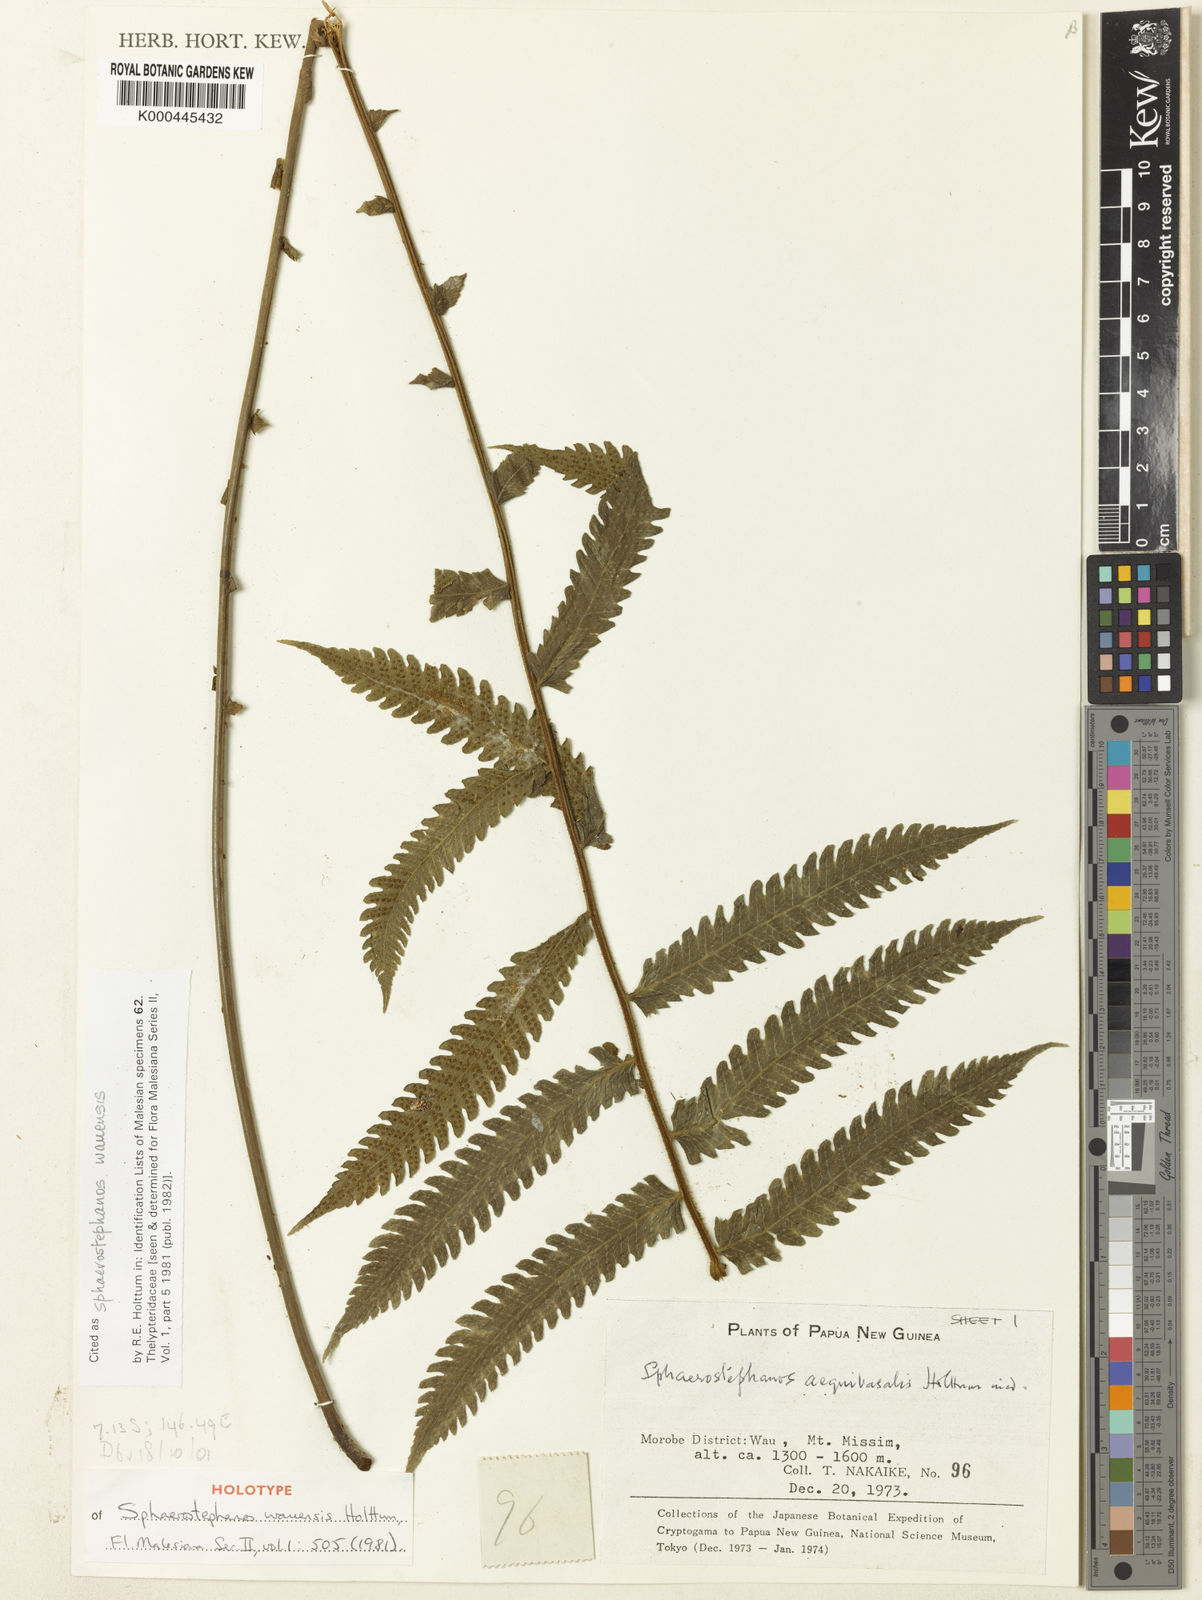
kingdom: Plantae
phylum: Tracheophyta
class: Polypodiopsida
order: Polypodiales
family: Thelypteridaceae
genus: Sphaerostephanos
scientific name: Sphaerostephanos wauensis
